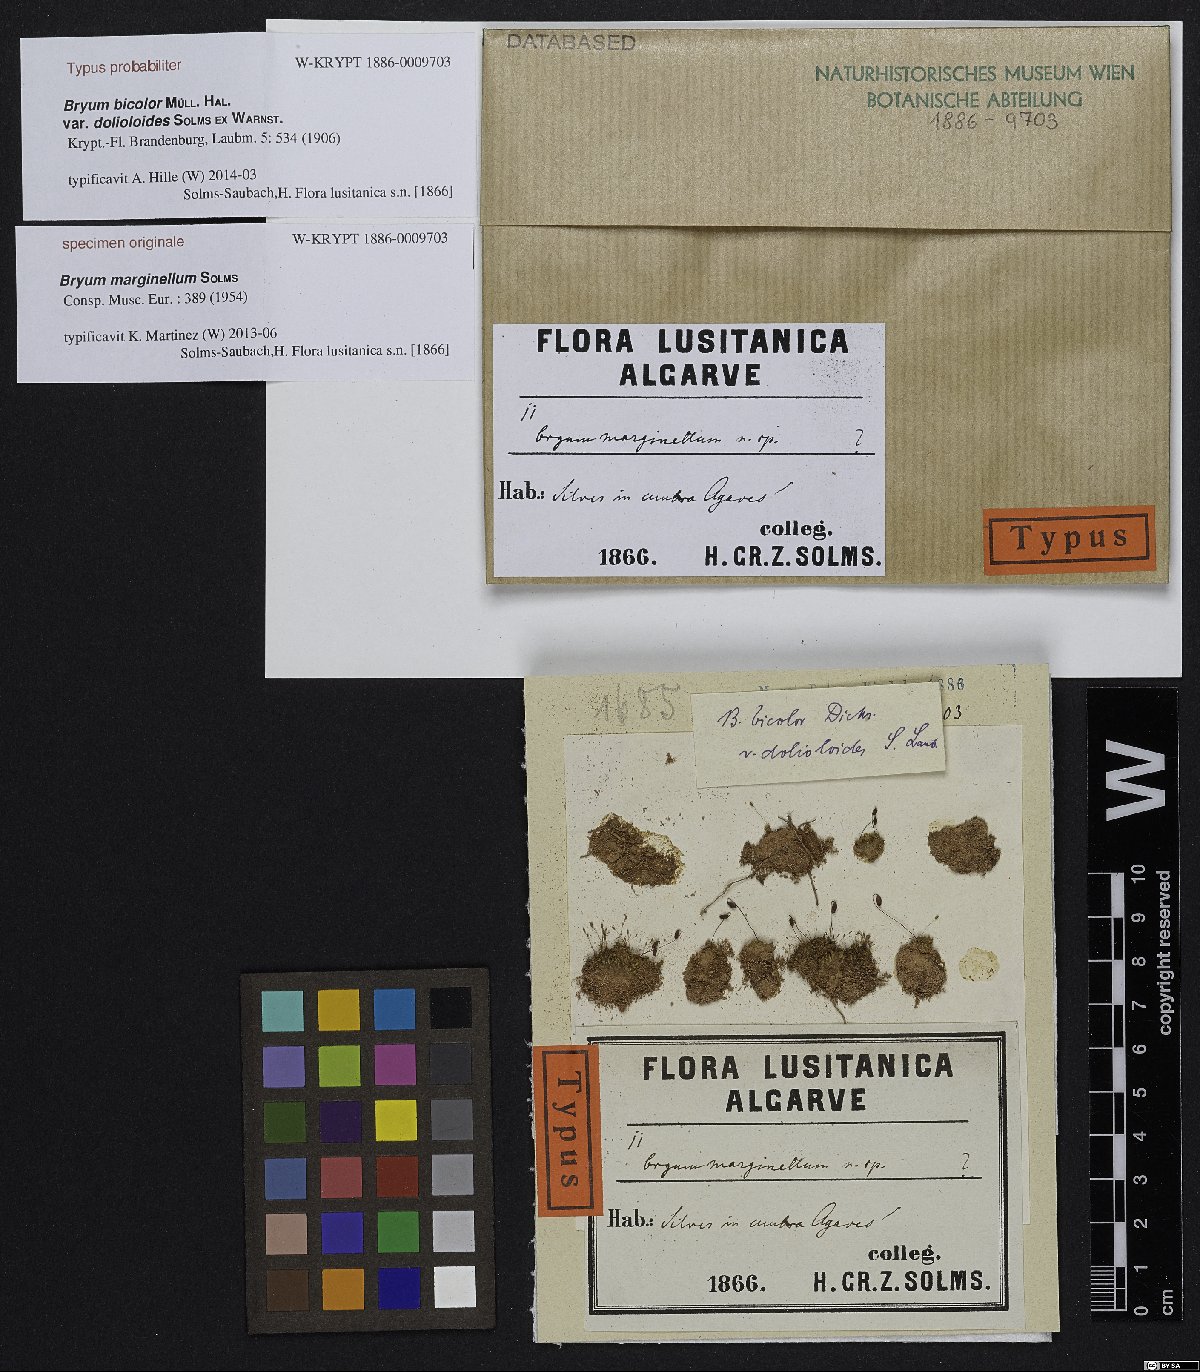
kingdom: Plantae
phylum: Bryophyta
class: Bryopsida
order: Bryales
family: Bryaceae
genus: Bryum
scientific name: Bryum marginatum
